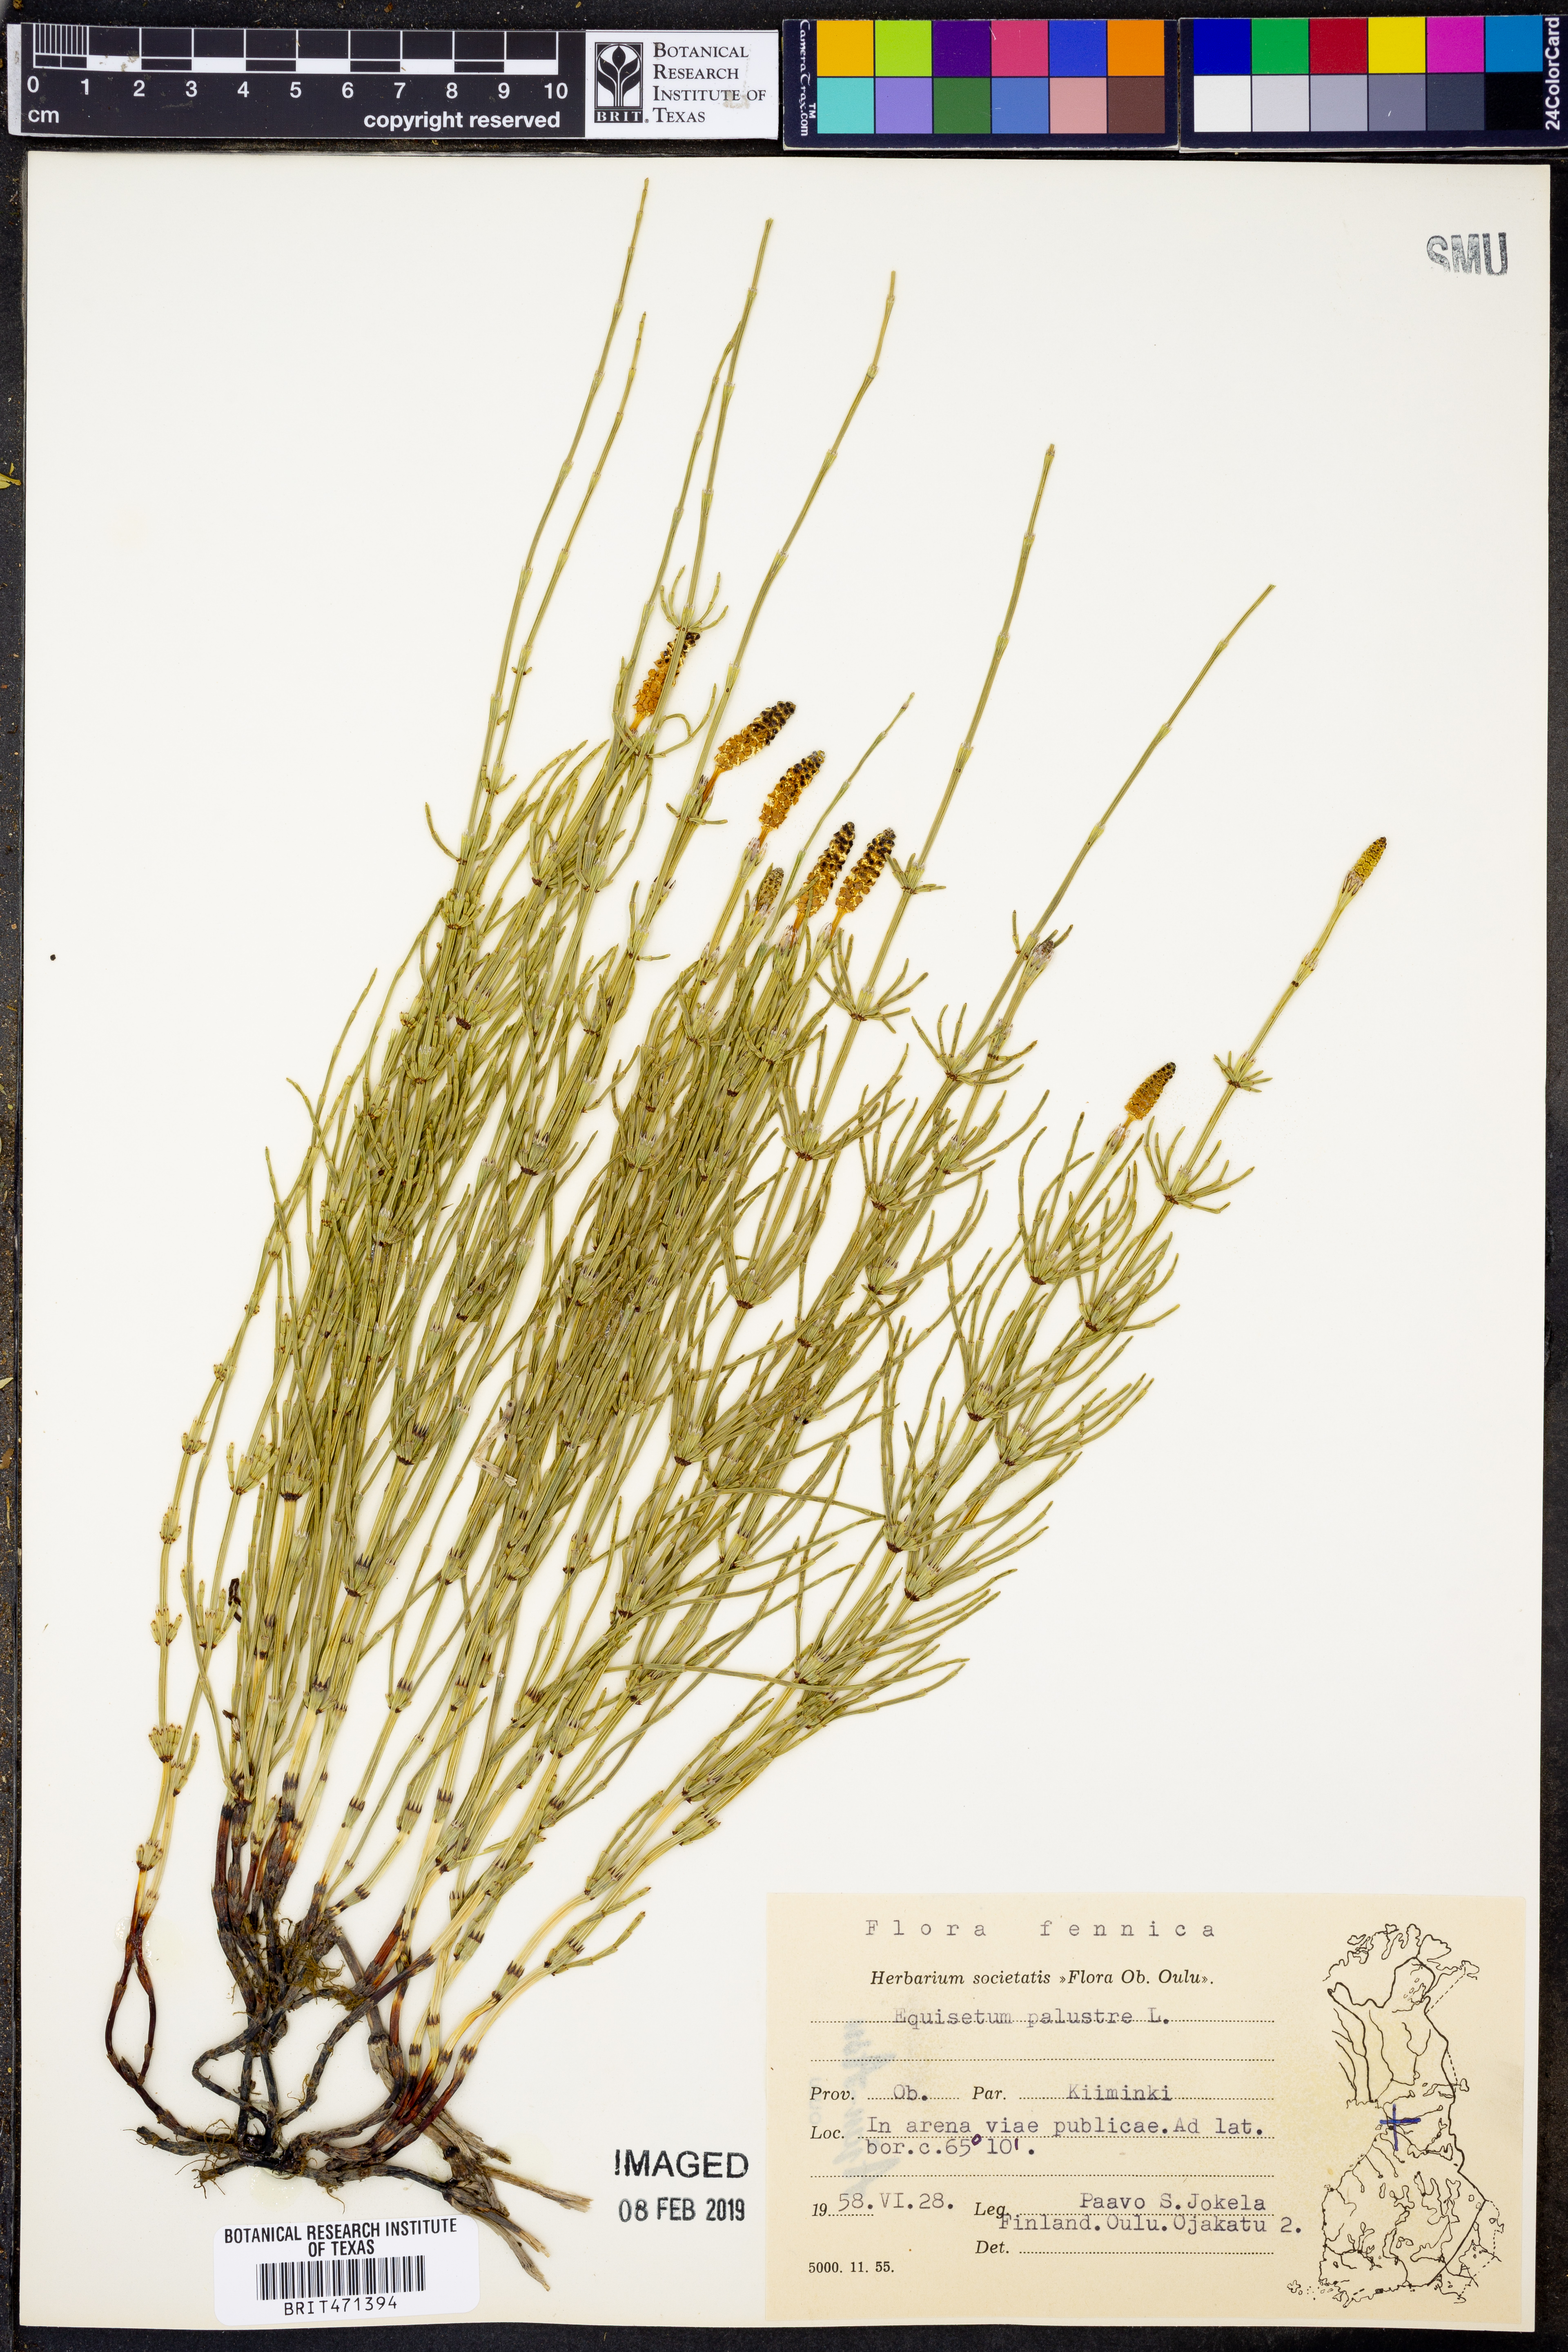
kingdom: Plantae
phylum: Tracheophyta
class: Polypodiopsida
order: Equisetales
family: Equisetaceae
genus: Equisetum
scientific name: Equisetum palustre
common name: Marsh horsetail
